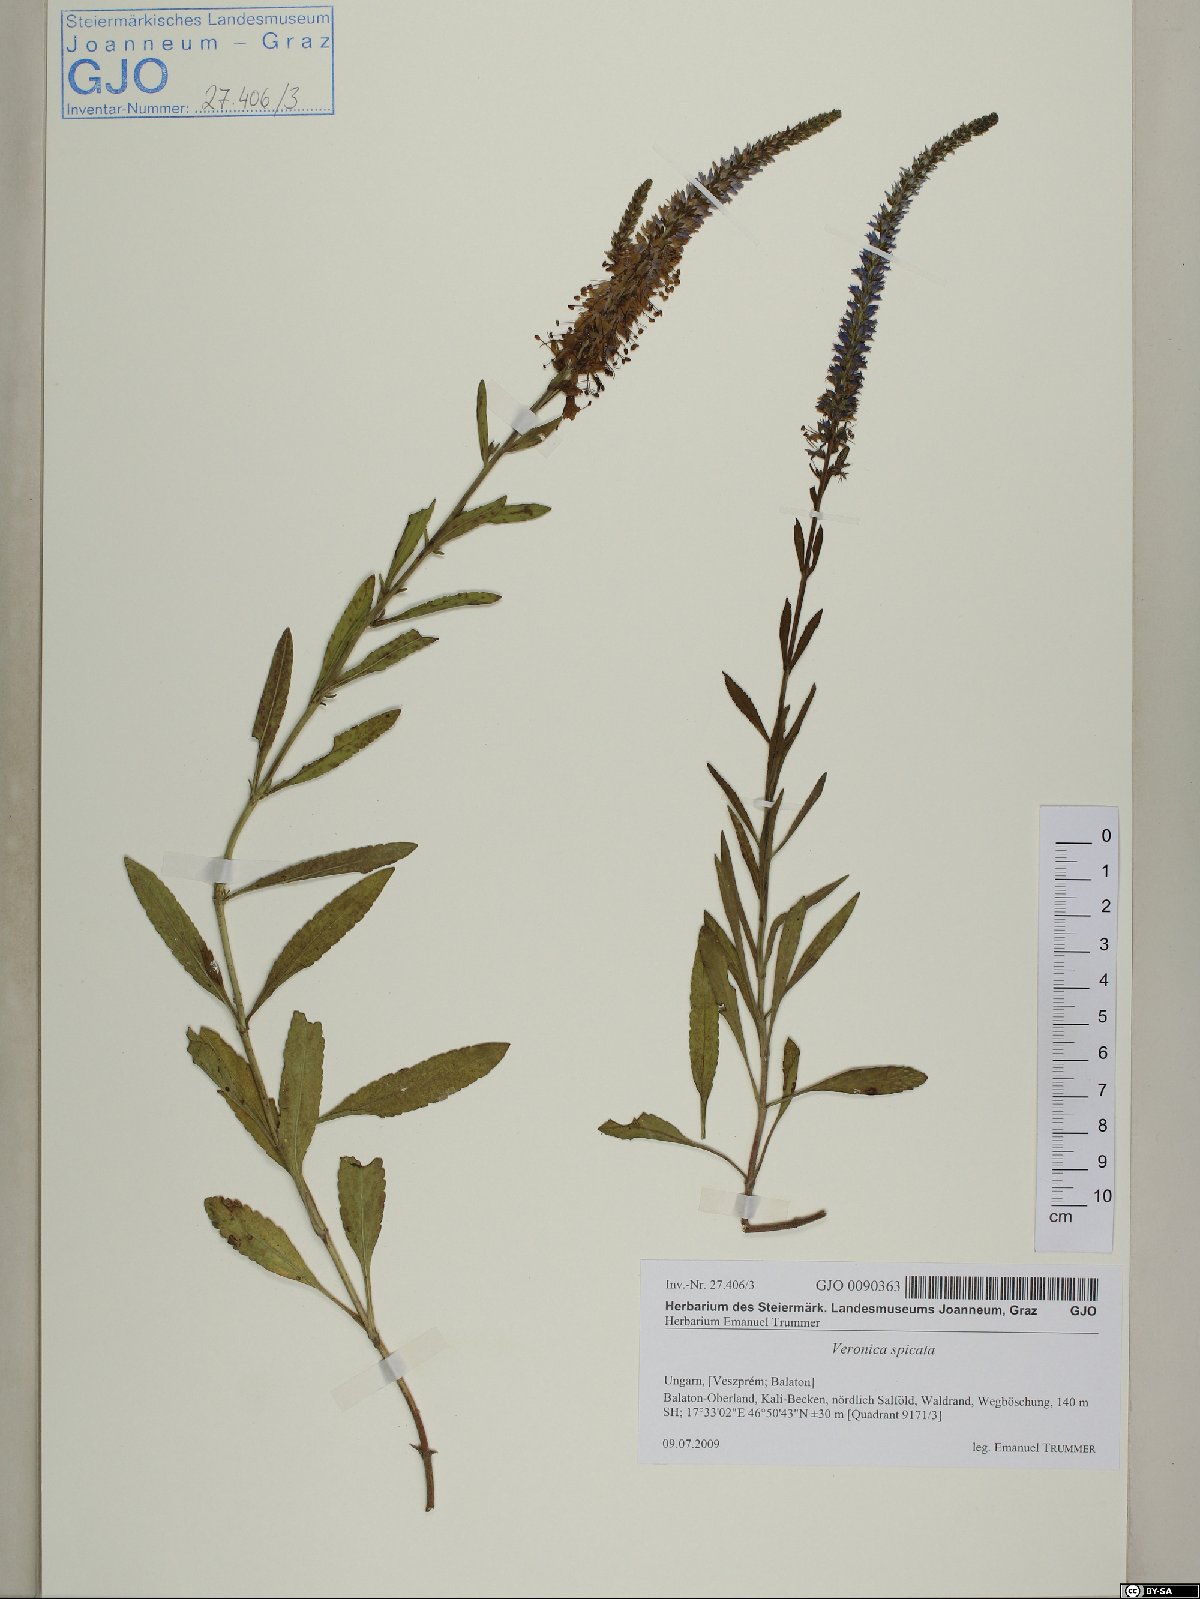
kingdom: Plantae
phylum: Tracheophyta
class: Magnoliopsida
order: Lamiales
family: Plantaginaceae
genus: Veronica
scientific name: Veronica spicata
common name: Spiked speedwell
